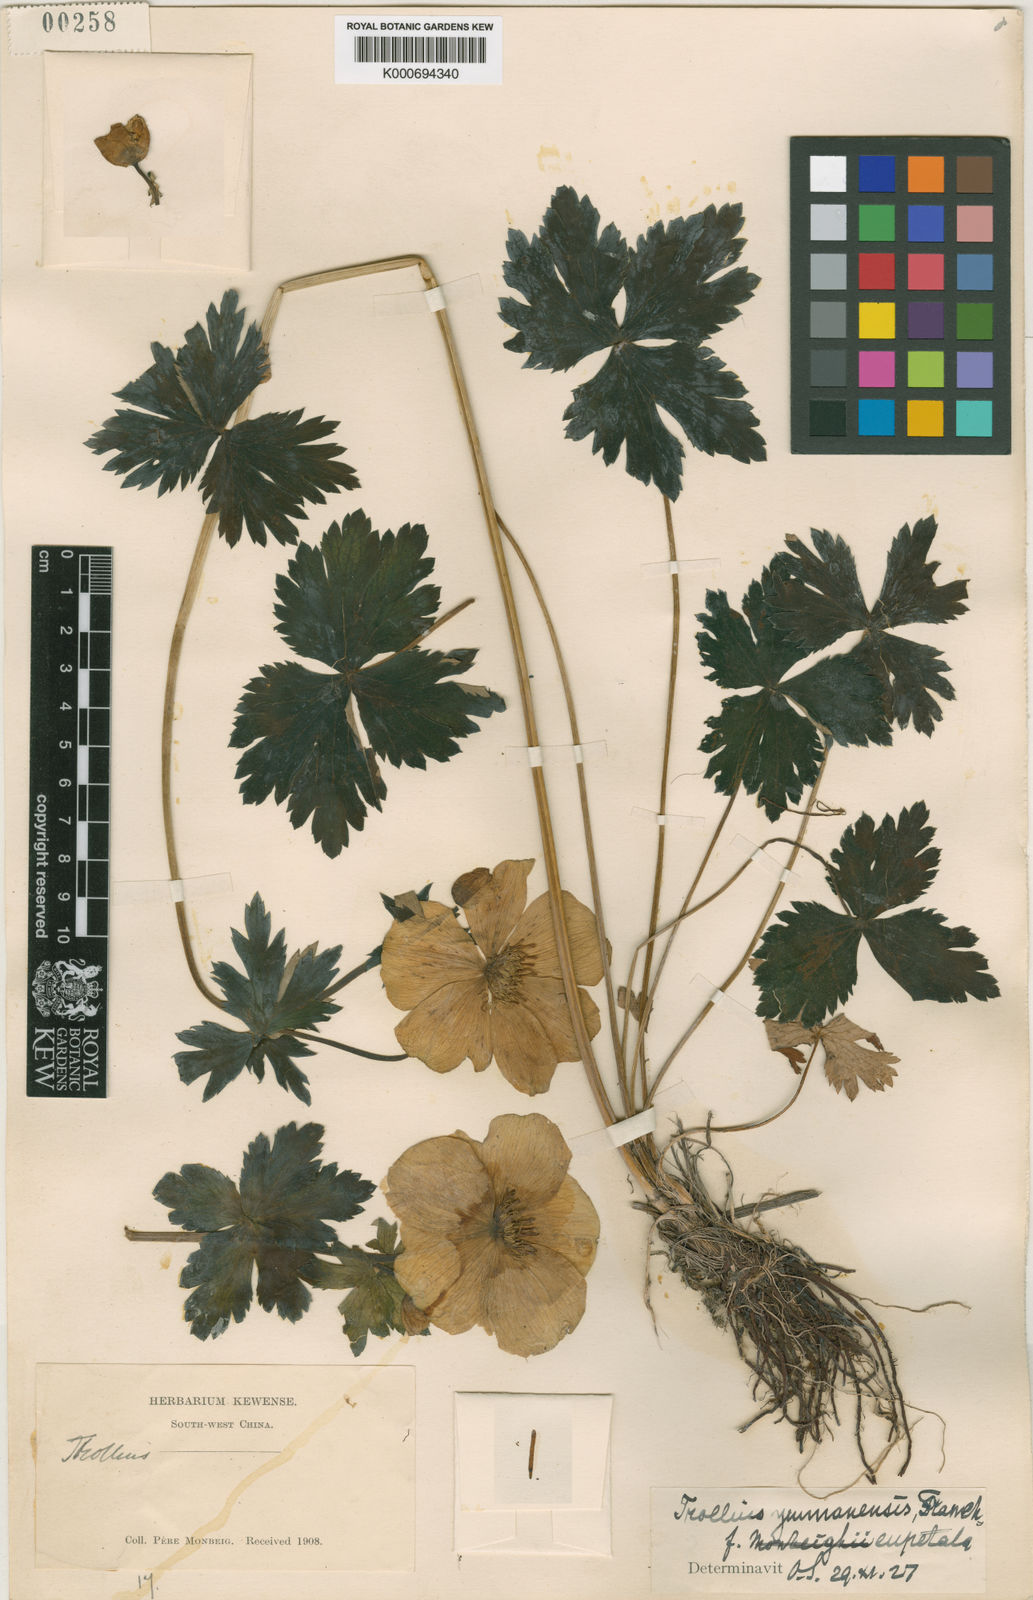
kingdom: Plantae
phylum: Tracheophyta
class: Magnoliopsida
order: Ranunculales
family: Ranunculaceae
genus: Trollius
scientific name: Trollius yunnanensis
